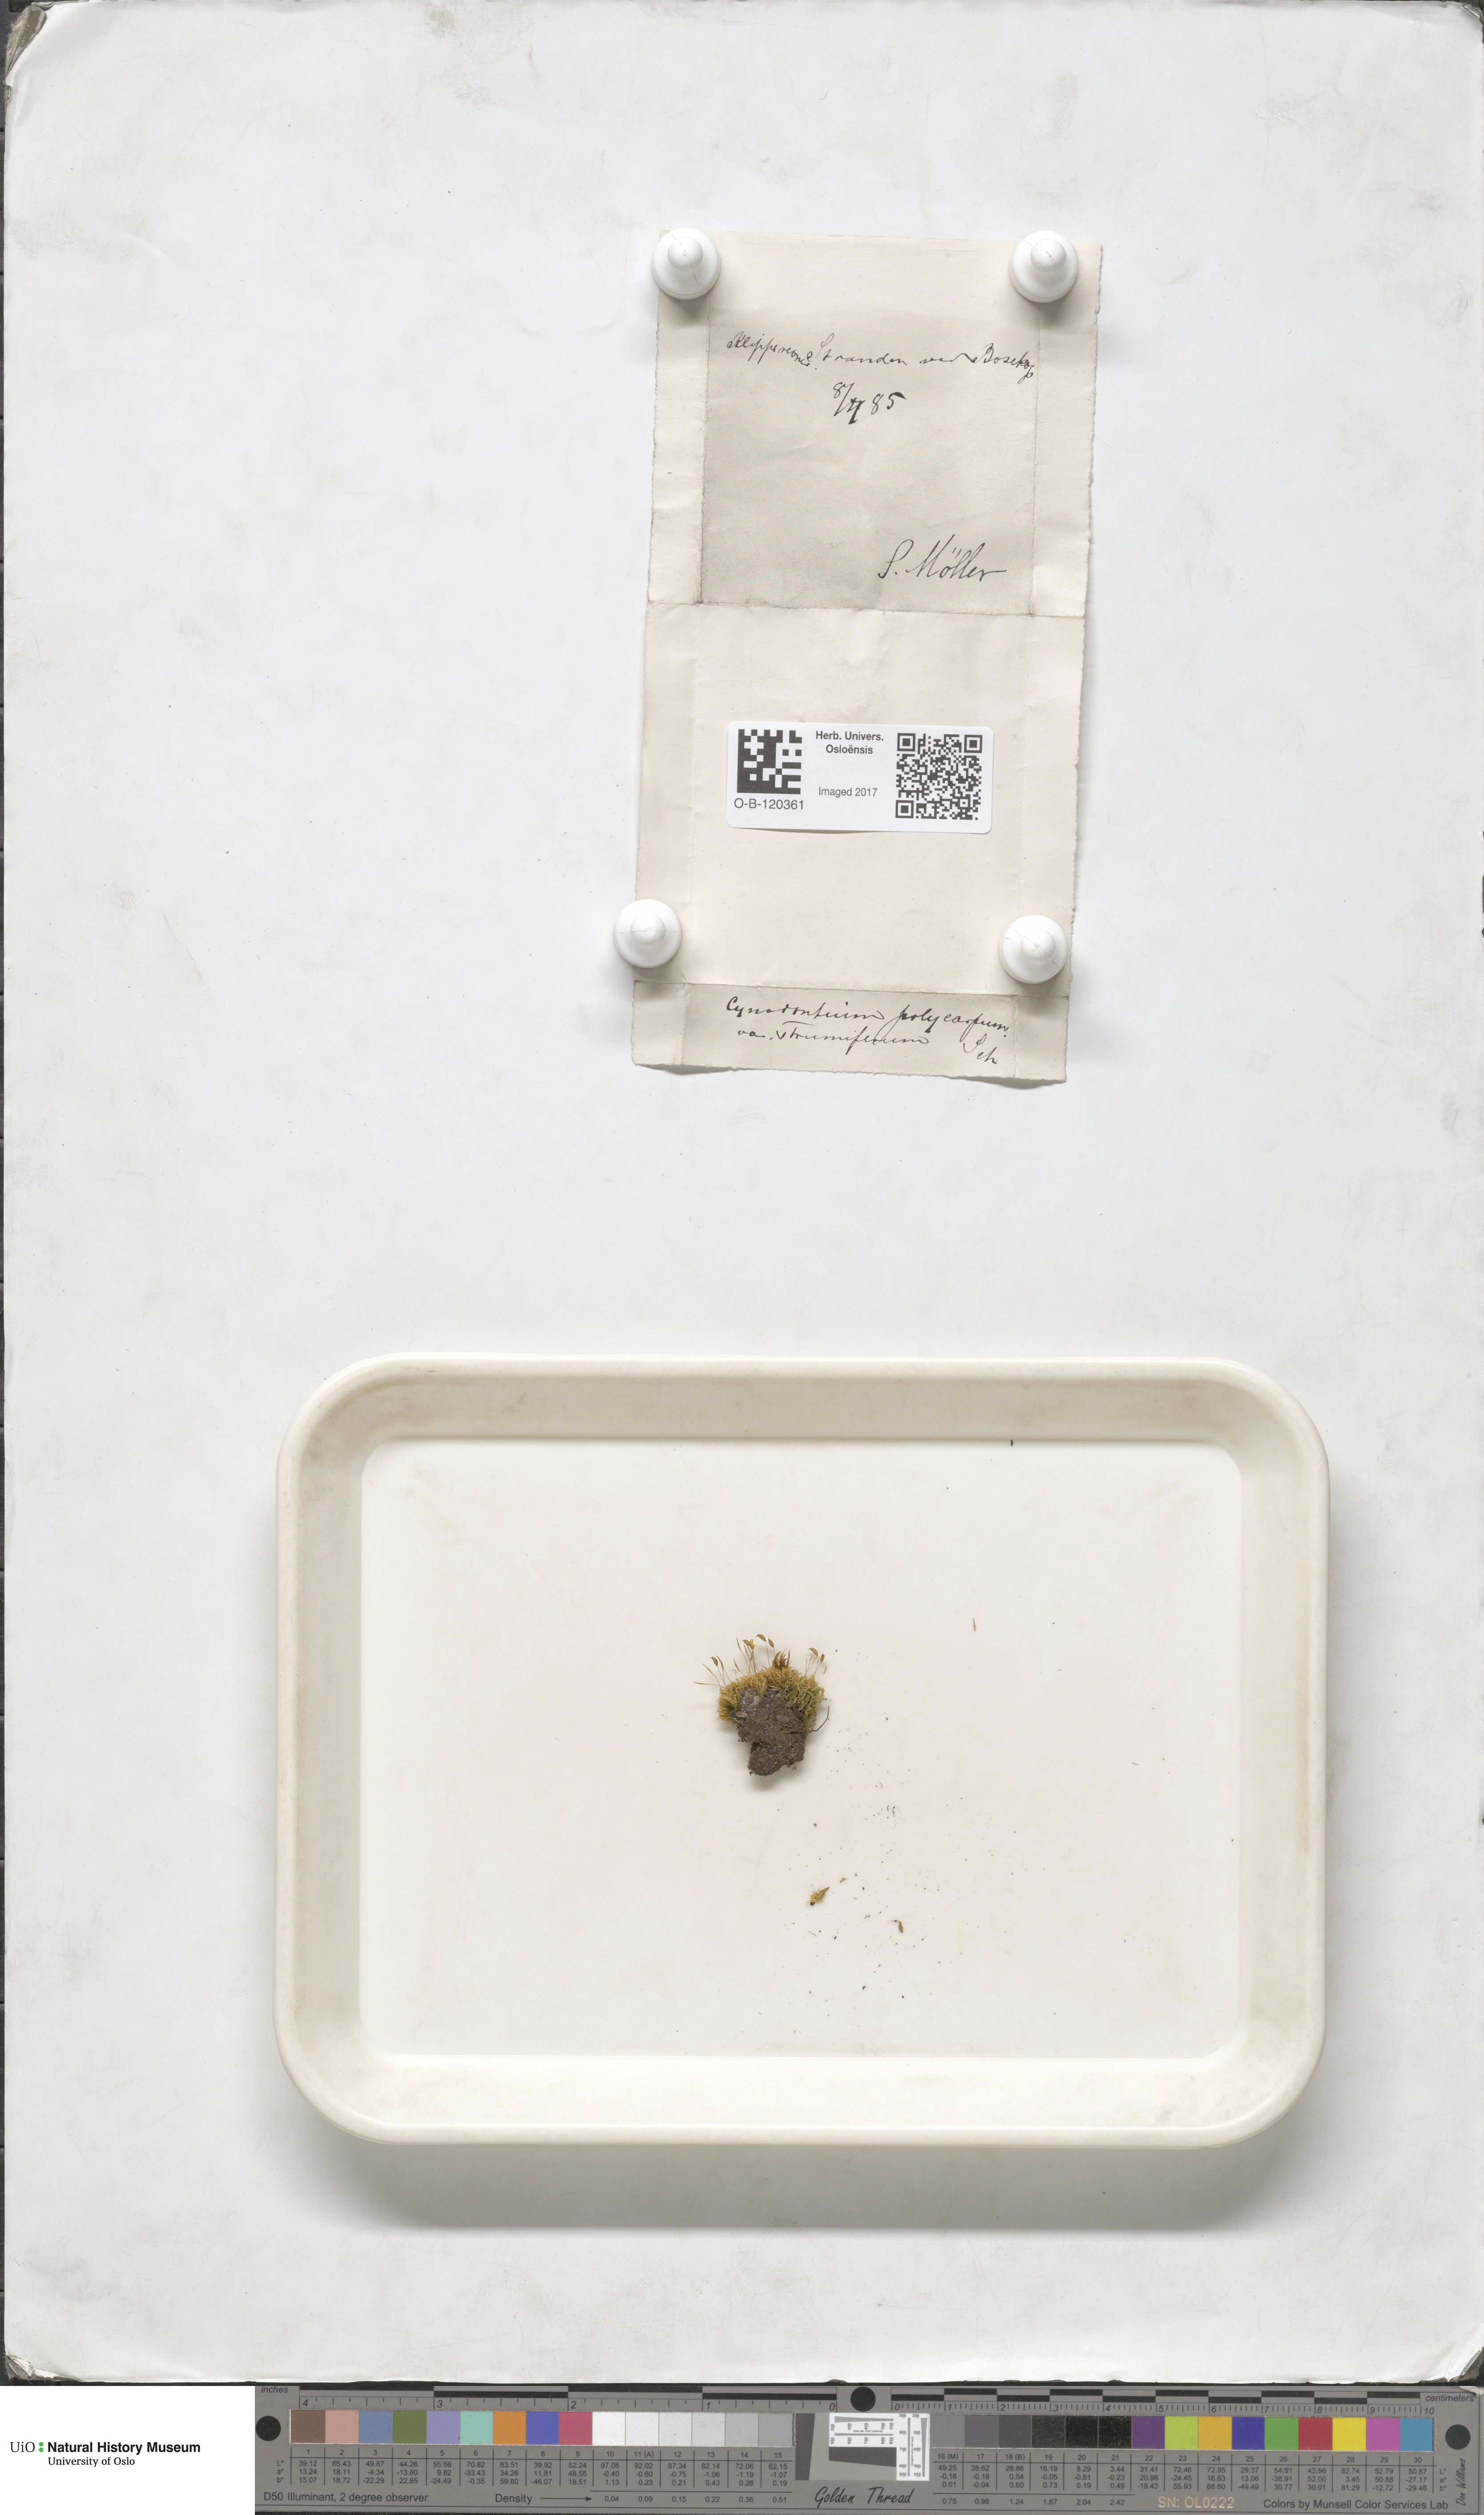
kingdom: Plantae
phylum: Bryophyta
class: Bryopsida
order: Dicranales
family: Rhabdoweisiaceae
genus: Cynodontium
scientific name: Cynodontium strumiferum
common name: Swollen dogtooth moss
